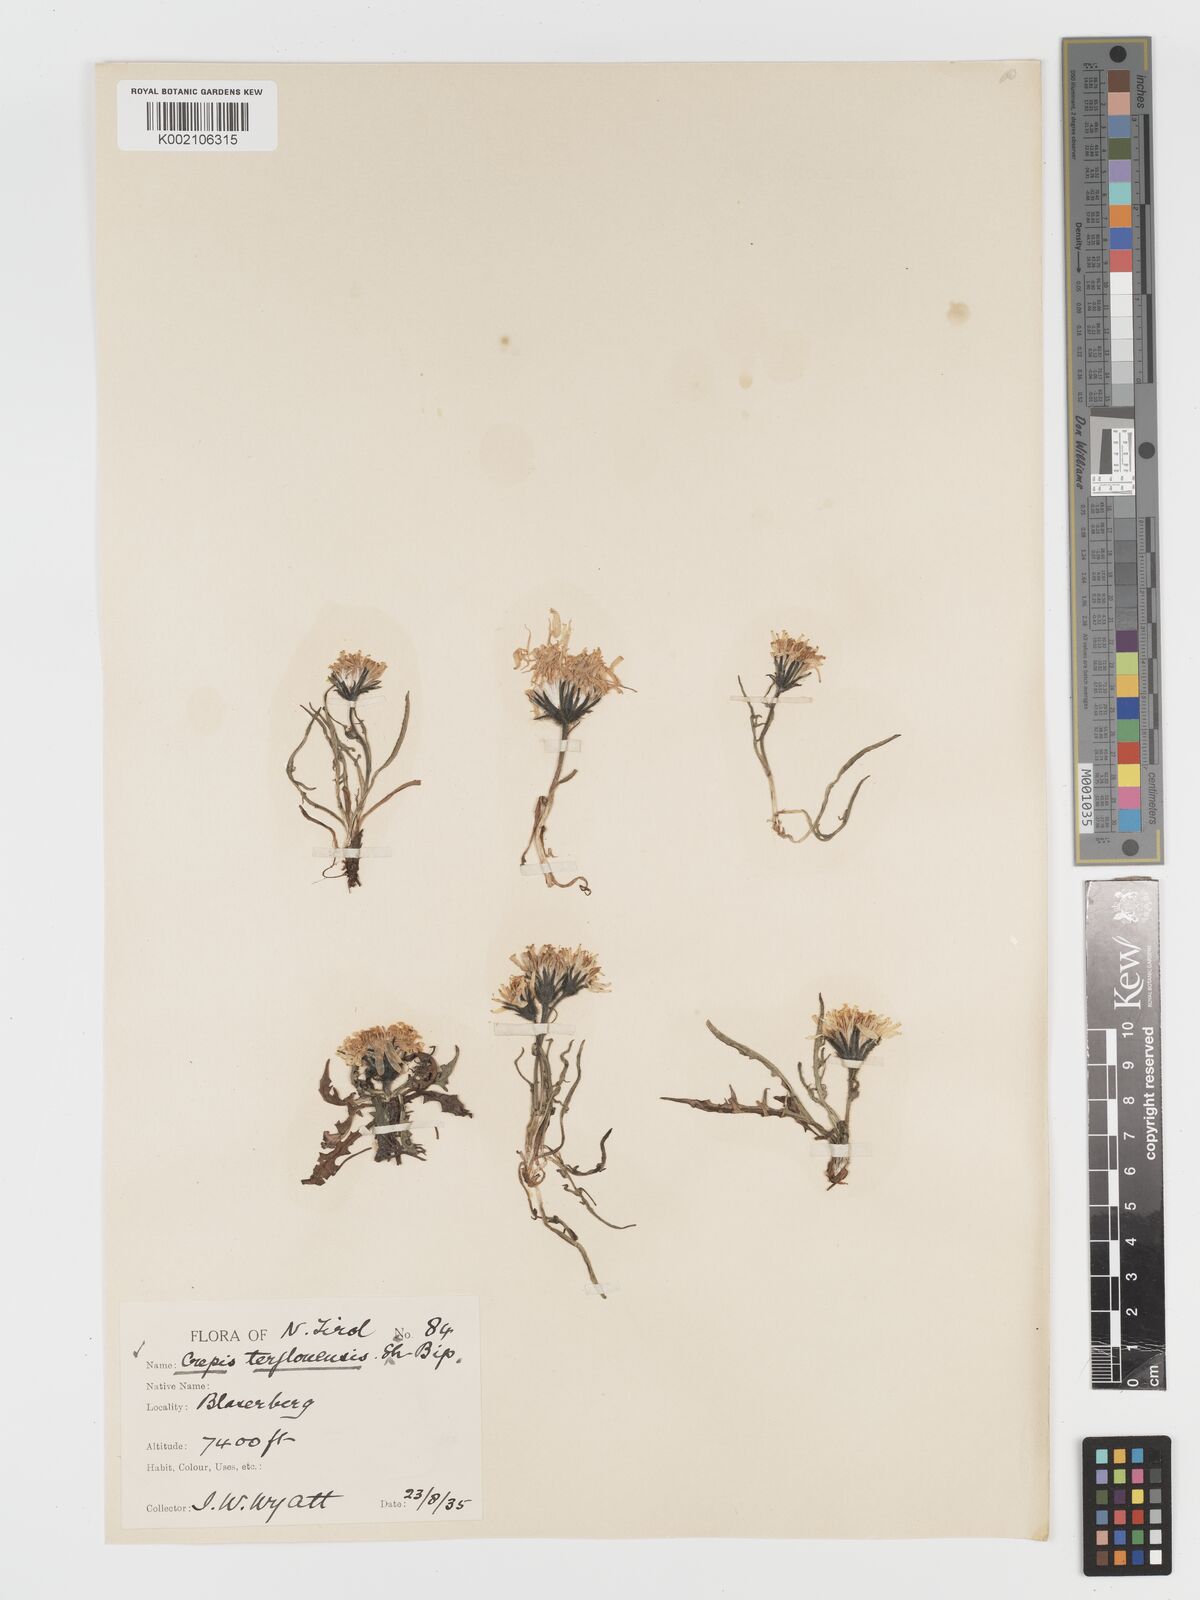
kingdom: Plantae
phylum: Tracheophyta
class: Magnoliopsida
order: Asterales
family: Asteraceae
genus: Crepis
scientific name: Crepis terglouensis
